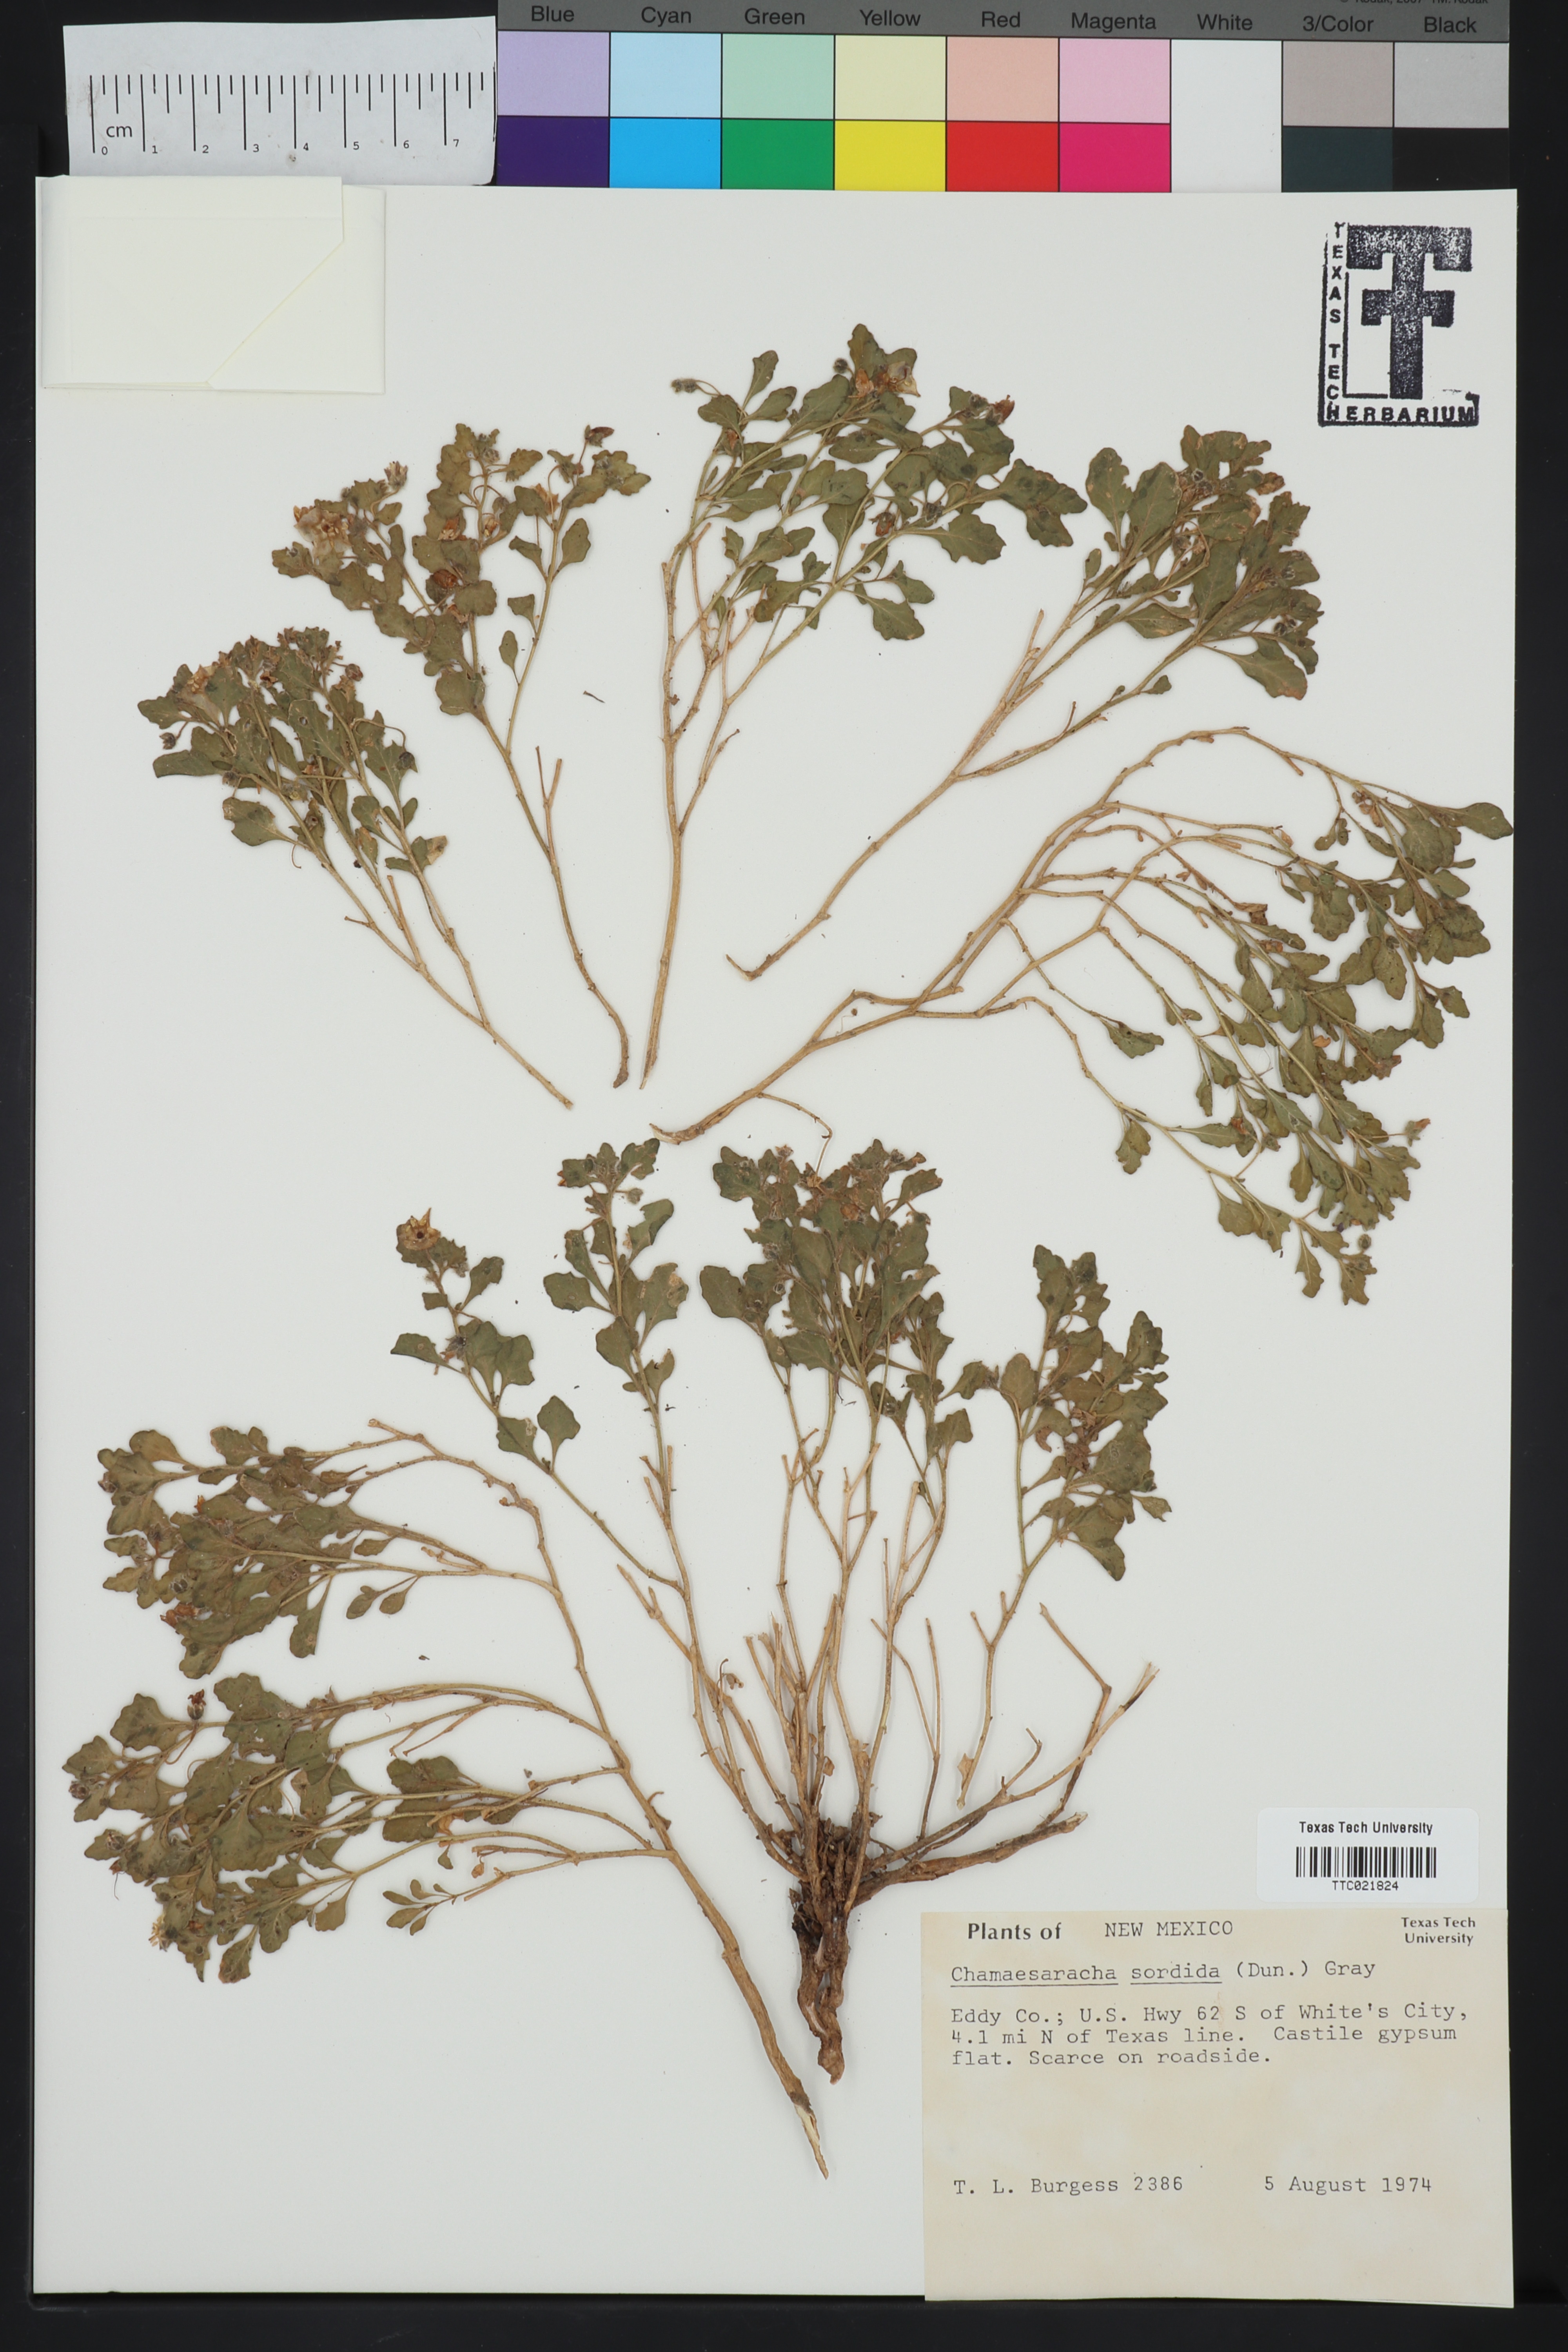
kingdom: Plantae
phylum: Tracheophyta
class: Magnoliopsida
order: Solanales
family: Solanaceae
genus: Chamaesaracha
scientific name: Chamaesaracha sordida
